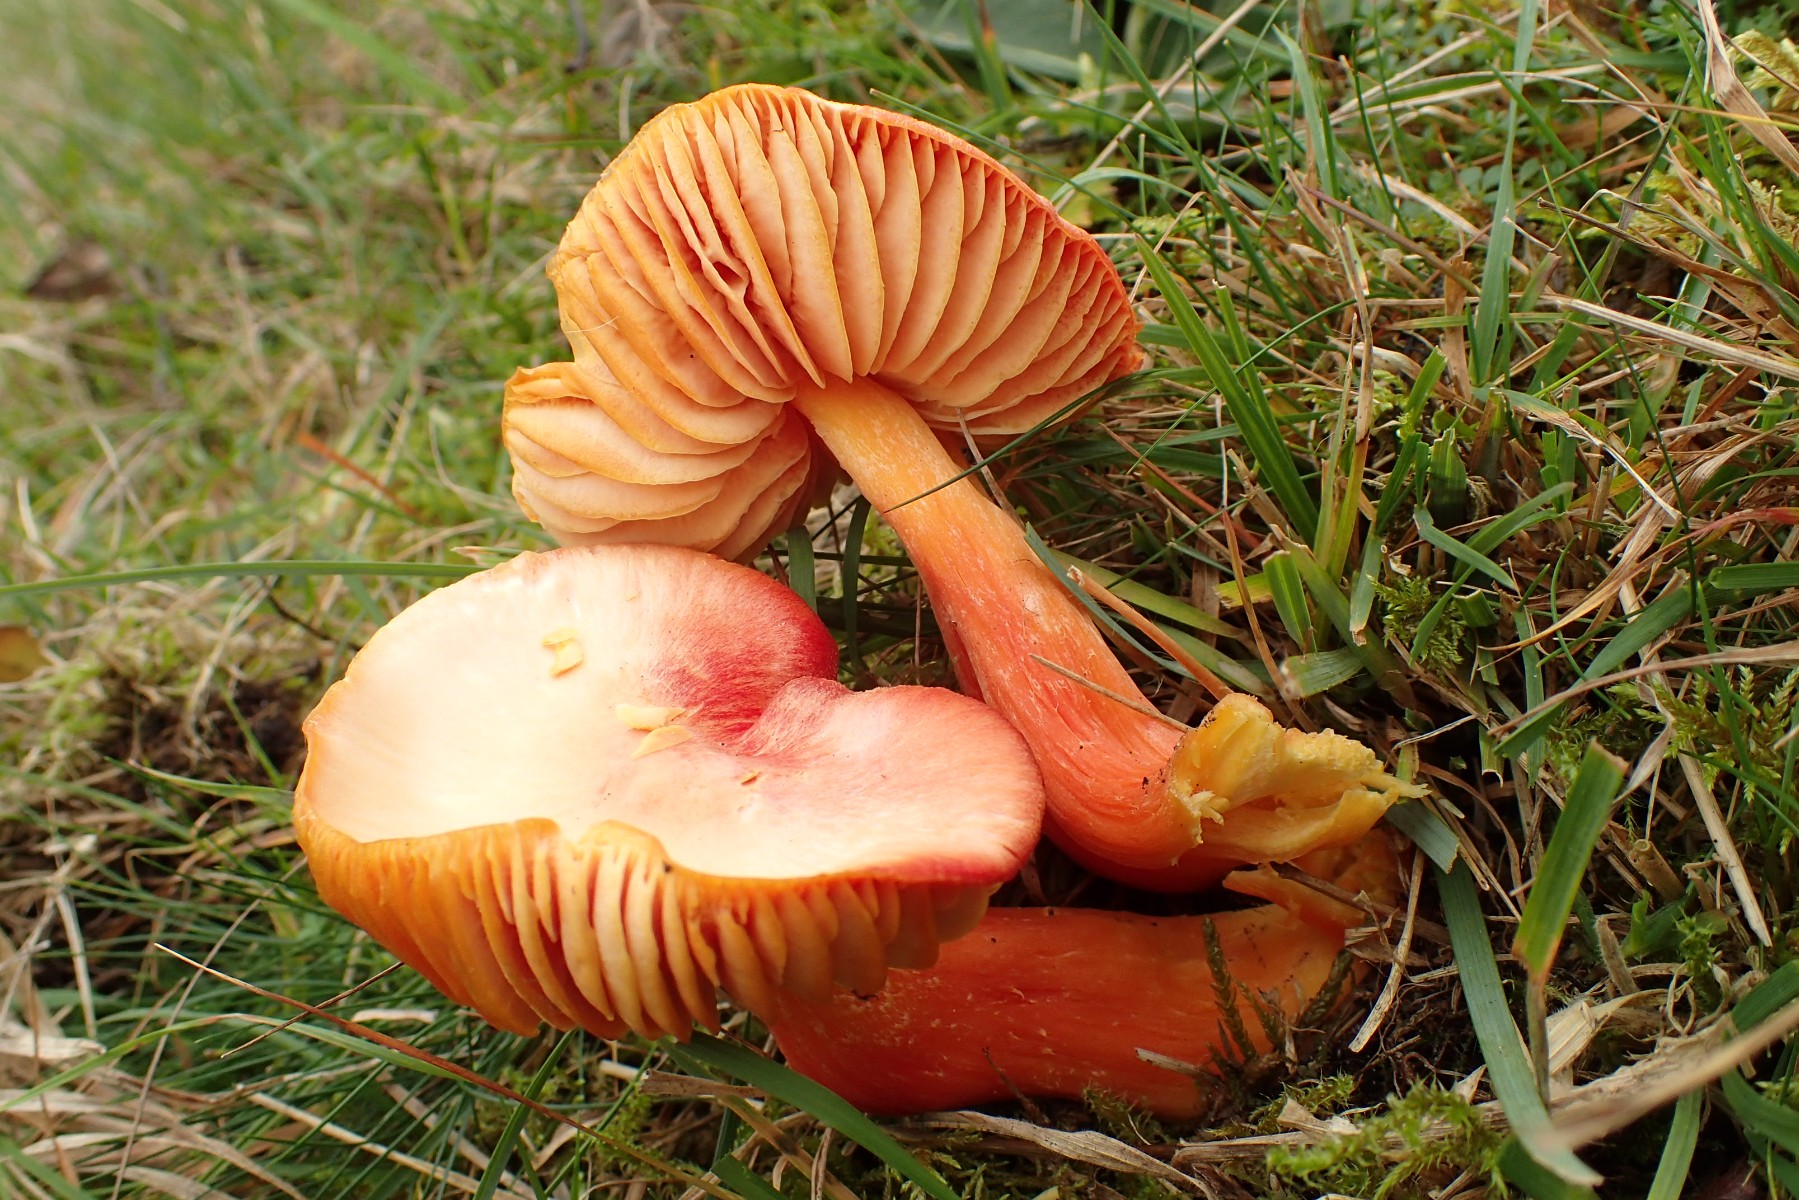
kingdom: Fungi
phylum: Basidiomycota
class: Agaricomycetes
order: Agaricales
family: Hygrophoraceae
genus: Hygrocybe
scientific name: Hygrocybe splendidissima
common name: knaldrød vokshat
